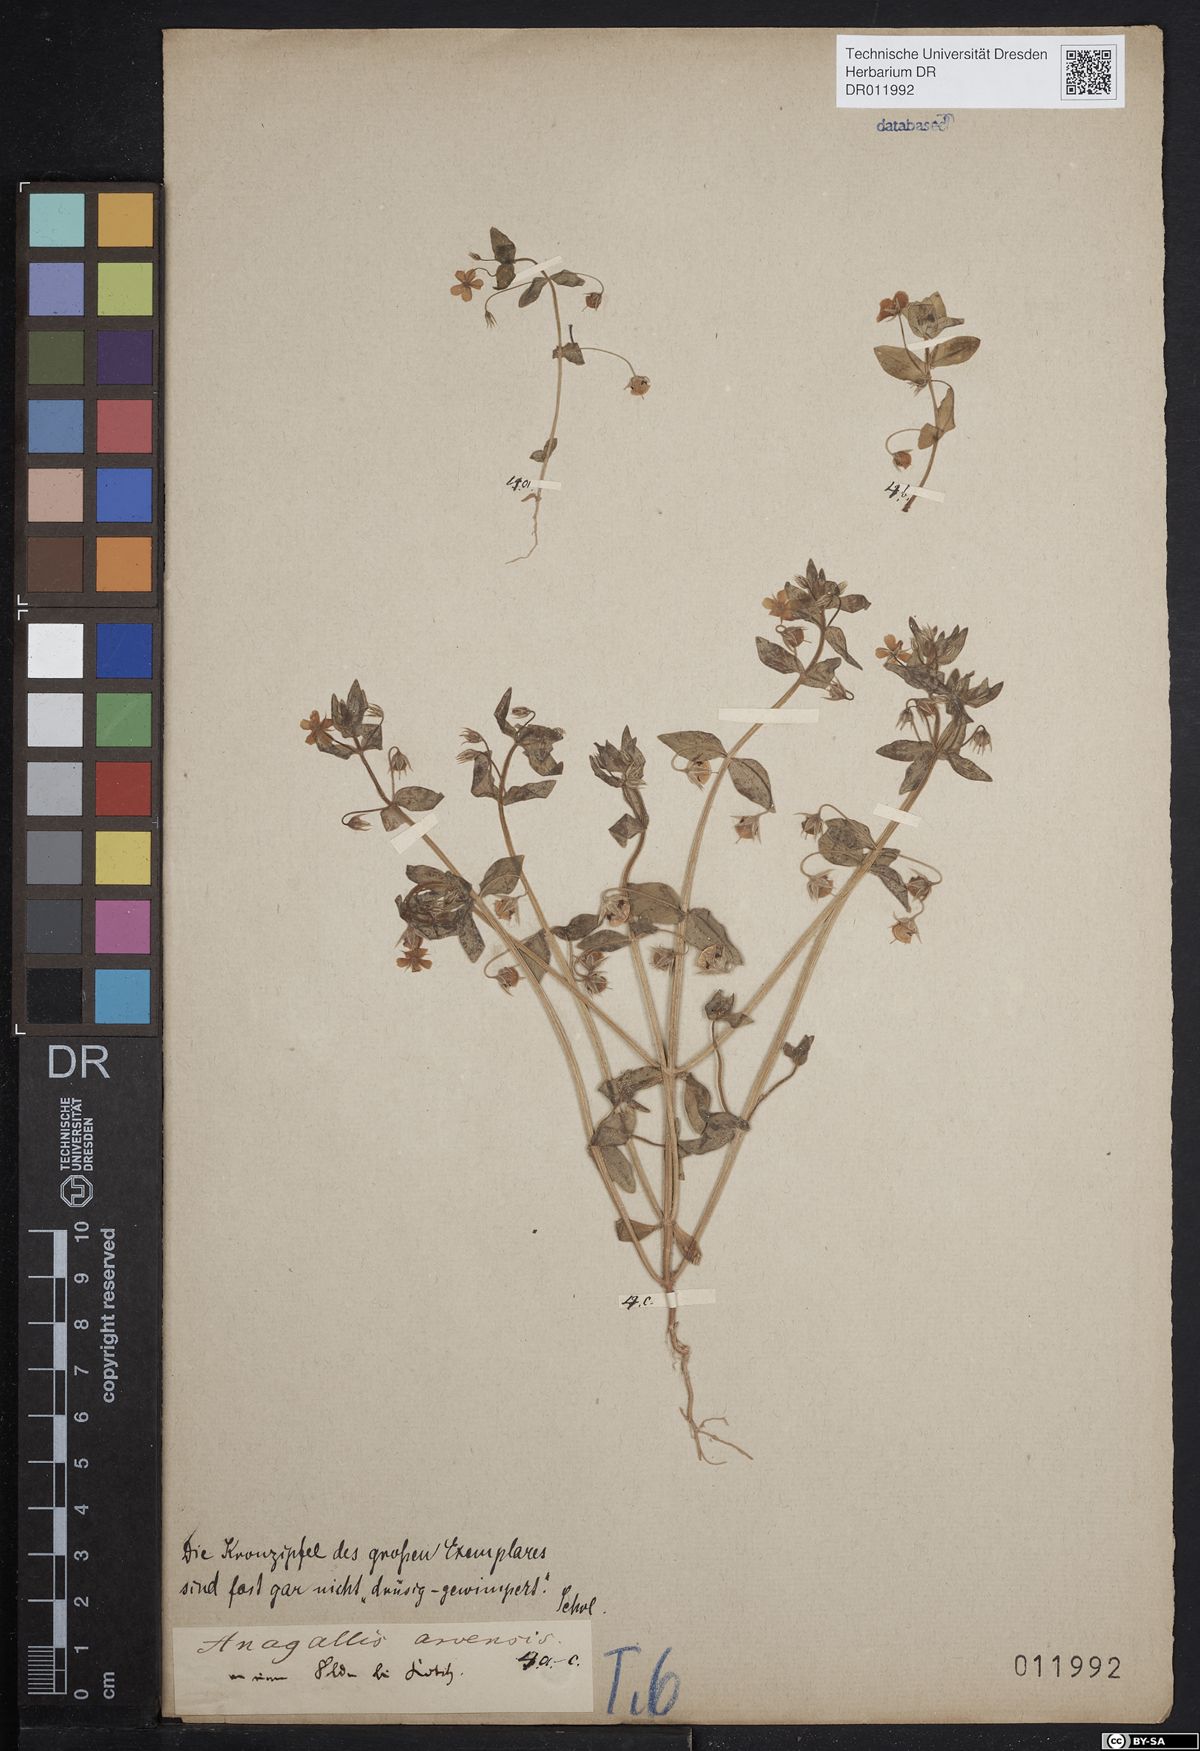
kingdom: Plantae
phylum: Tracheophyta
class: Magnoliopsida
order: Ericales
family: Primulaceae
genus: Lysimachia
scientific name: Lysimachia arvensis
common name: Scarlet pimpernel
